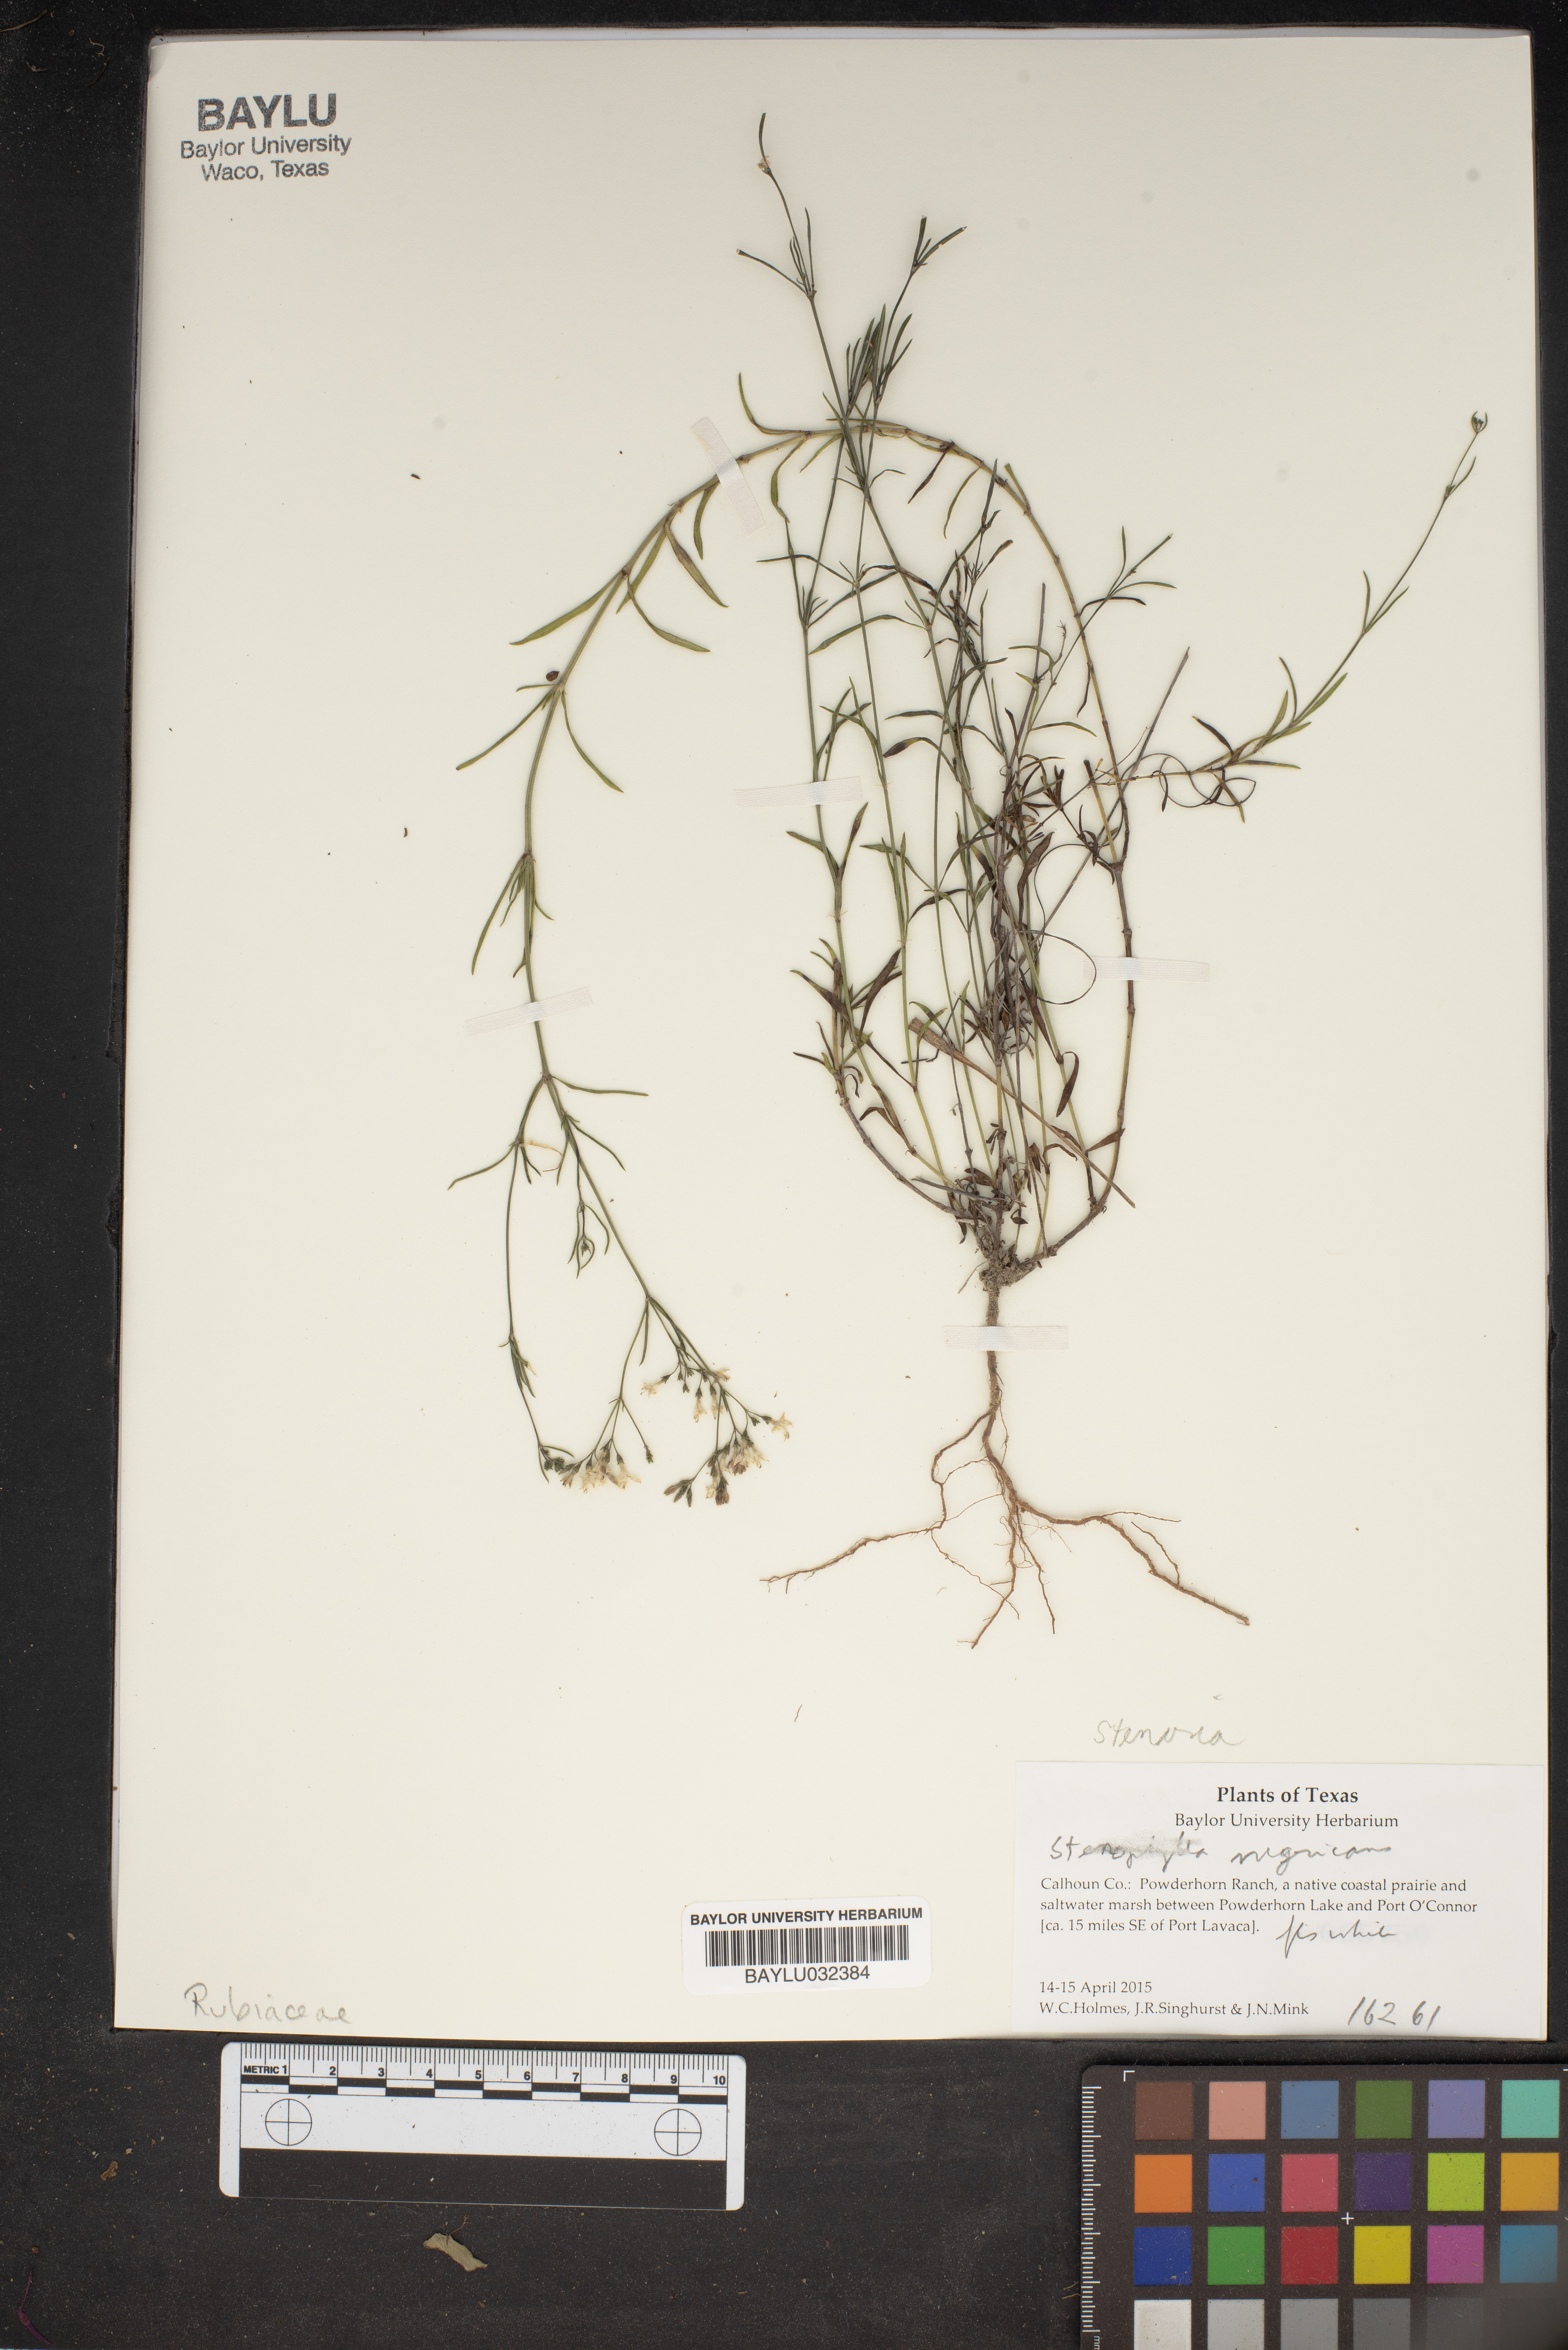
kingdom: Plantae
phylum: Tracheophyta
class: Magnoliopsida
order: Gentianales
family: Rubiaceae
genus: Stenaria
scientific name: Stenaria nigricans
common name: Diamondflowers
